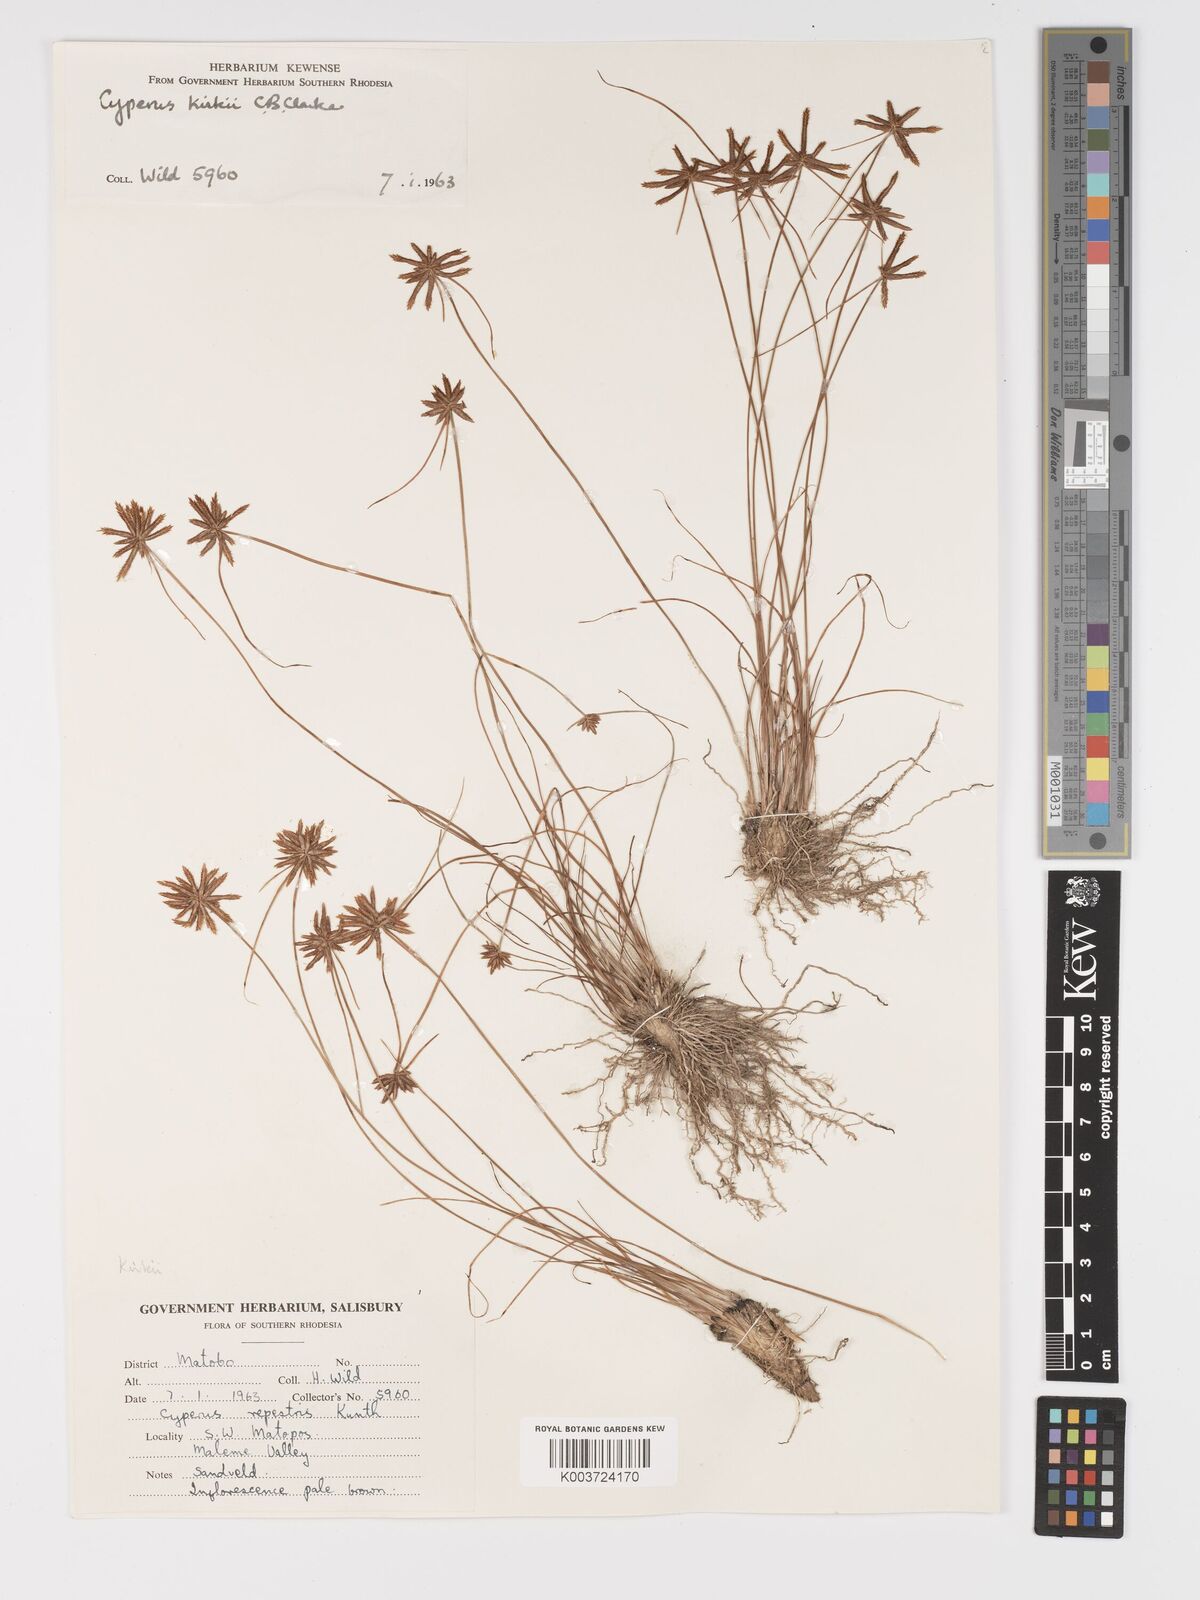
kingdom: Plantae
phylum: Tracheophyta
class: Liliopsida
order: Poales
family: Cyperaceae
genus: Cyperus
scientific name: Cyperus rupestris
